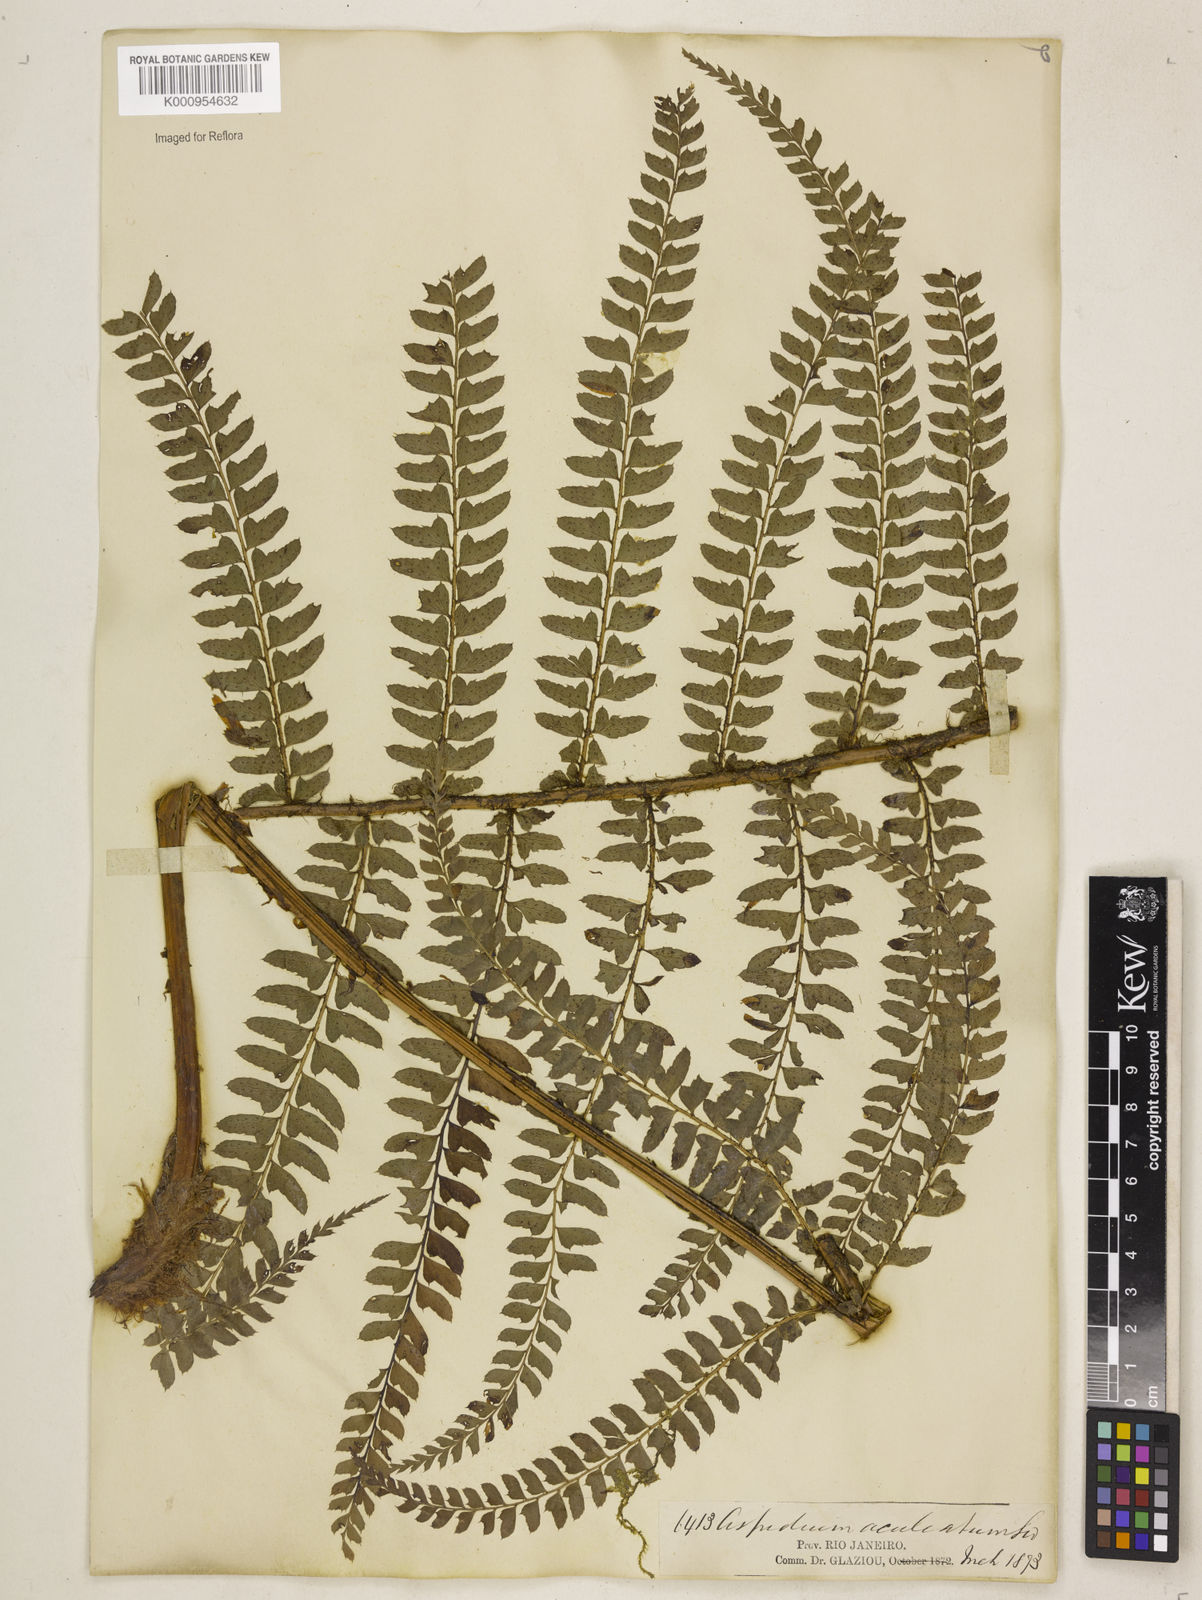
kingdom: Plantae
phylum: Tracheophyta
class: Polypodiopsida
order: Polypodiales
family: Dryopteridaceae
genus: Polystichum
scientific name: Polystichum
